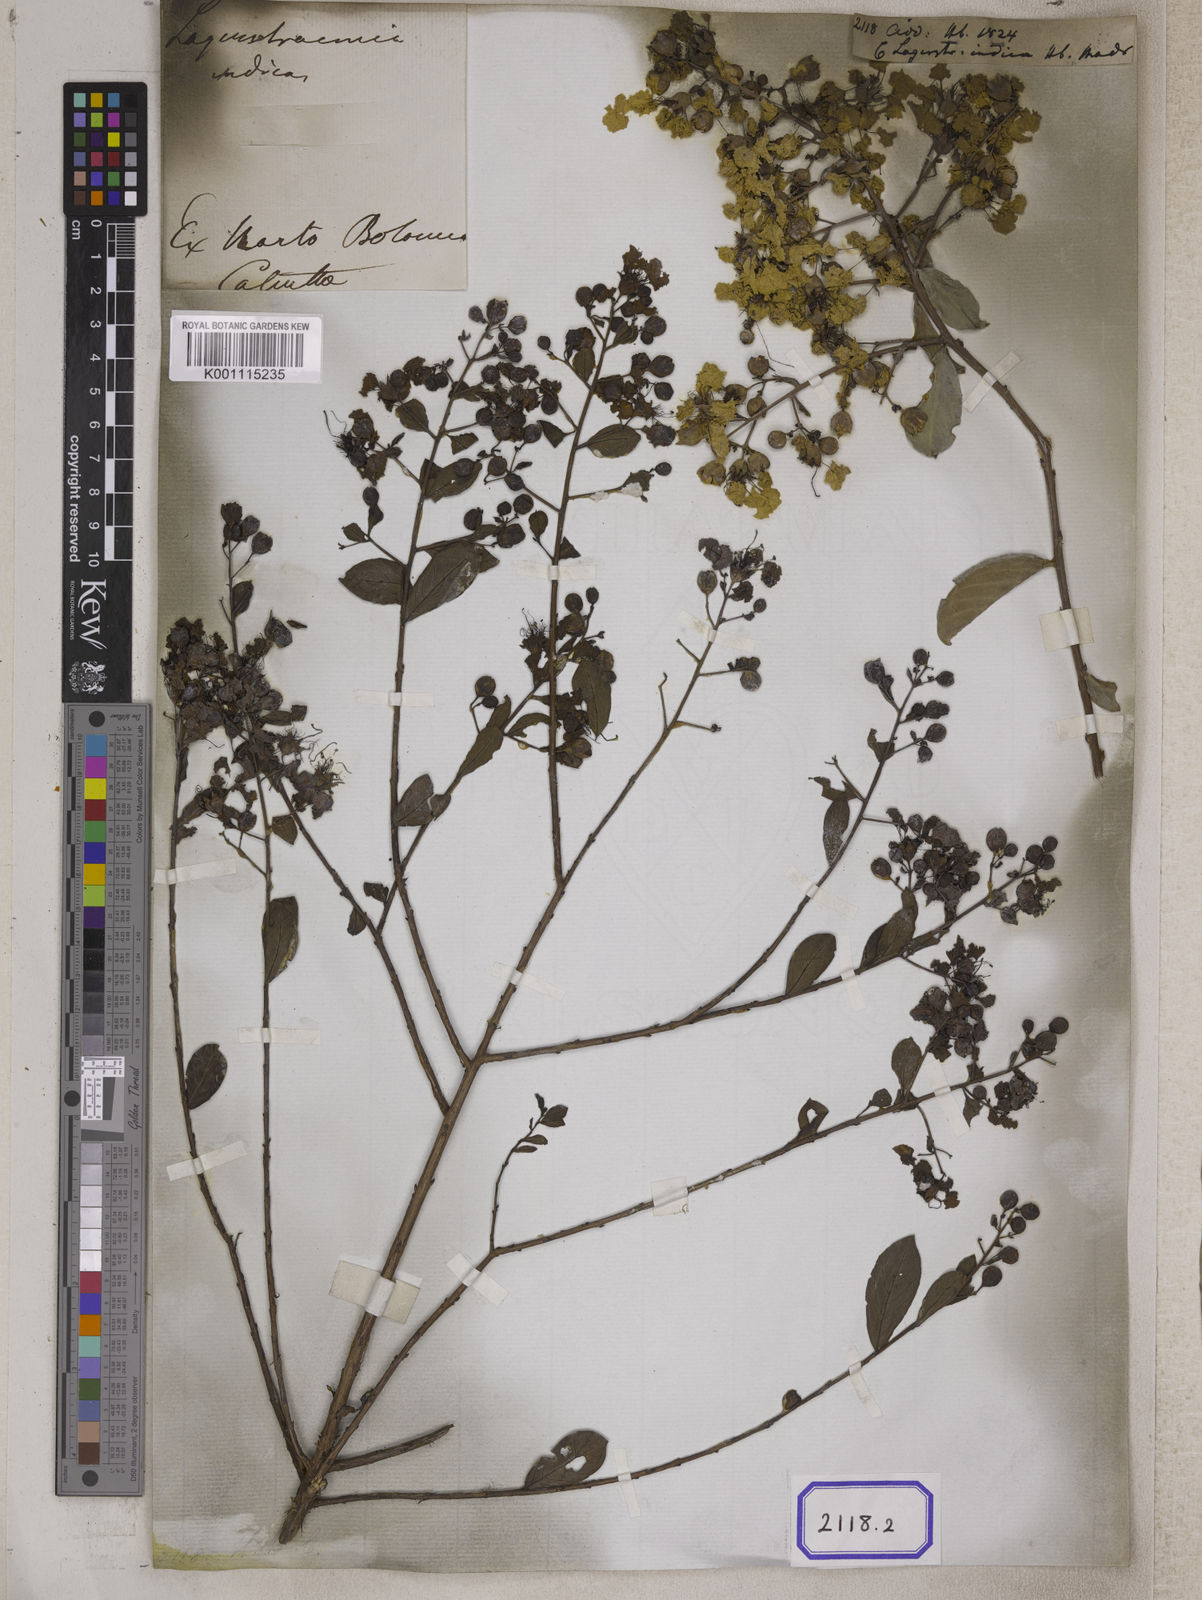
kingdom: Plantae
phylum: Tracheophyta
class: Magnoliopsida
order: Myrtales
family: Lythraceae
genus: Lagerstroemia
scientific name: Lagerstroemia indica
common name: Crape-myrtle
